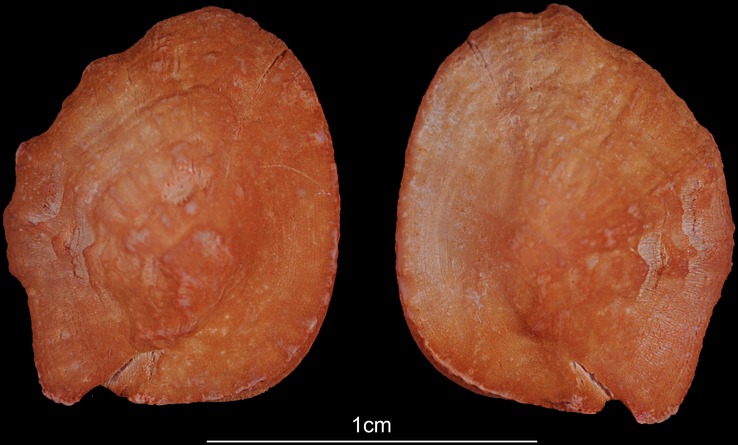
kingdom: Animalia
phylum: Chordata
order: Siluriformes
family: Ariidae
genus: Galeichthys
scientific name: Galeichthys feliceps
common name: White seacatfish
